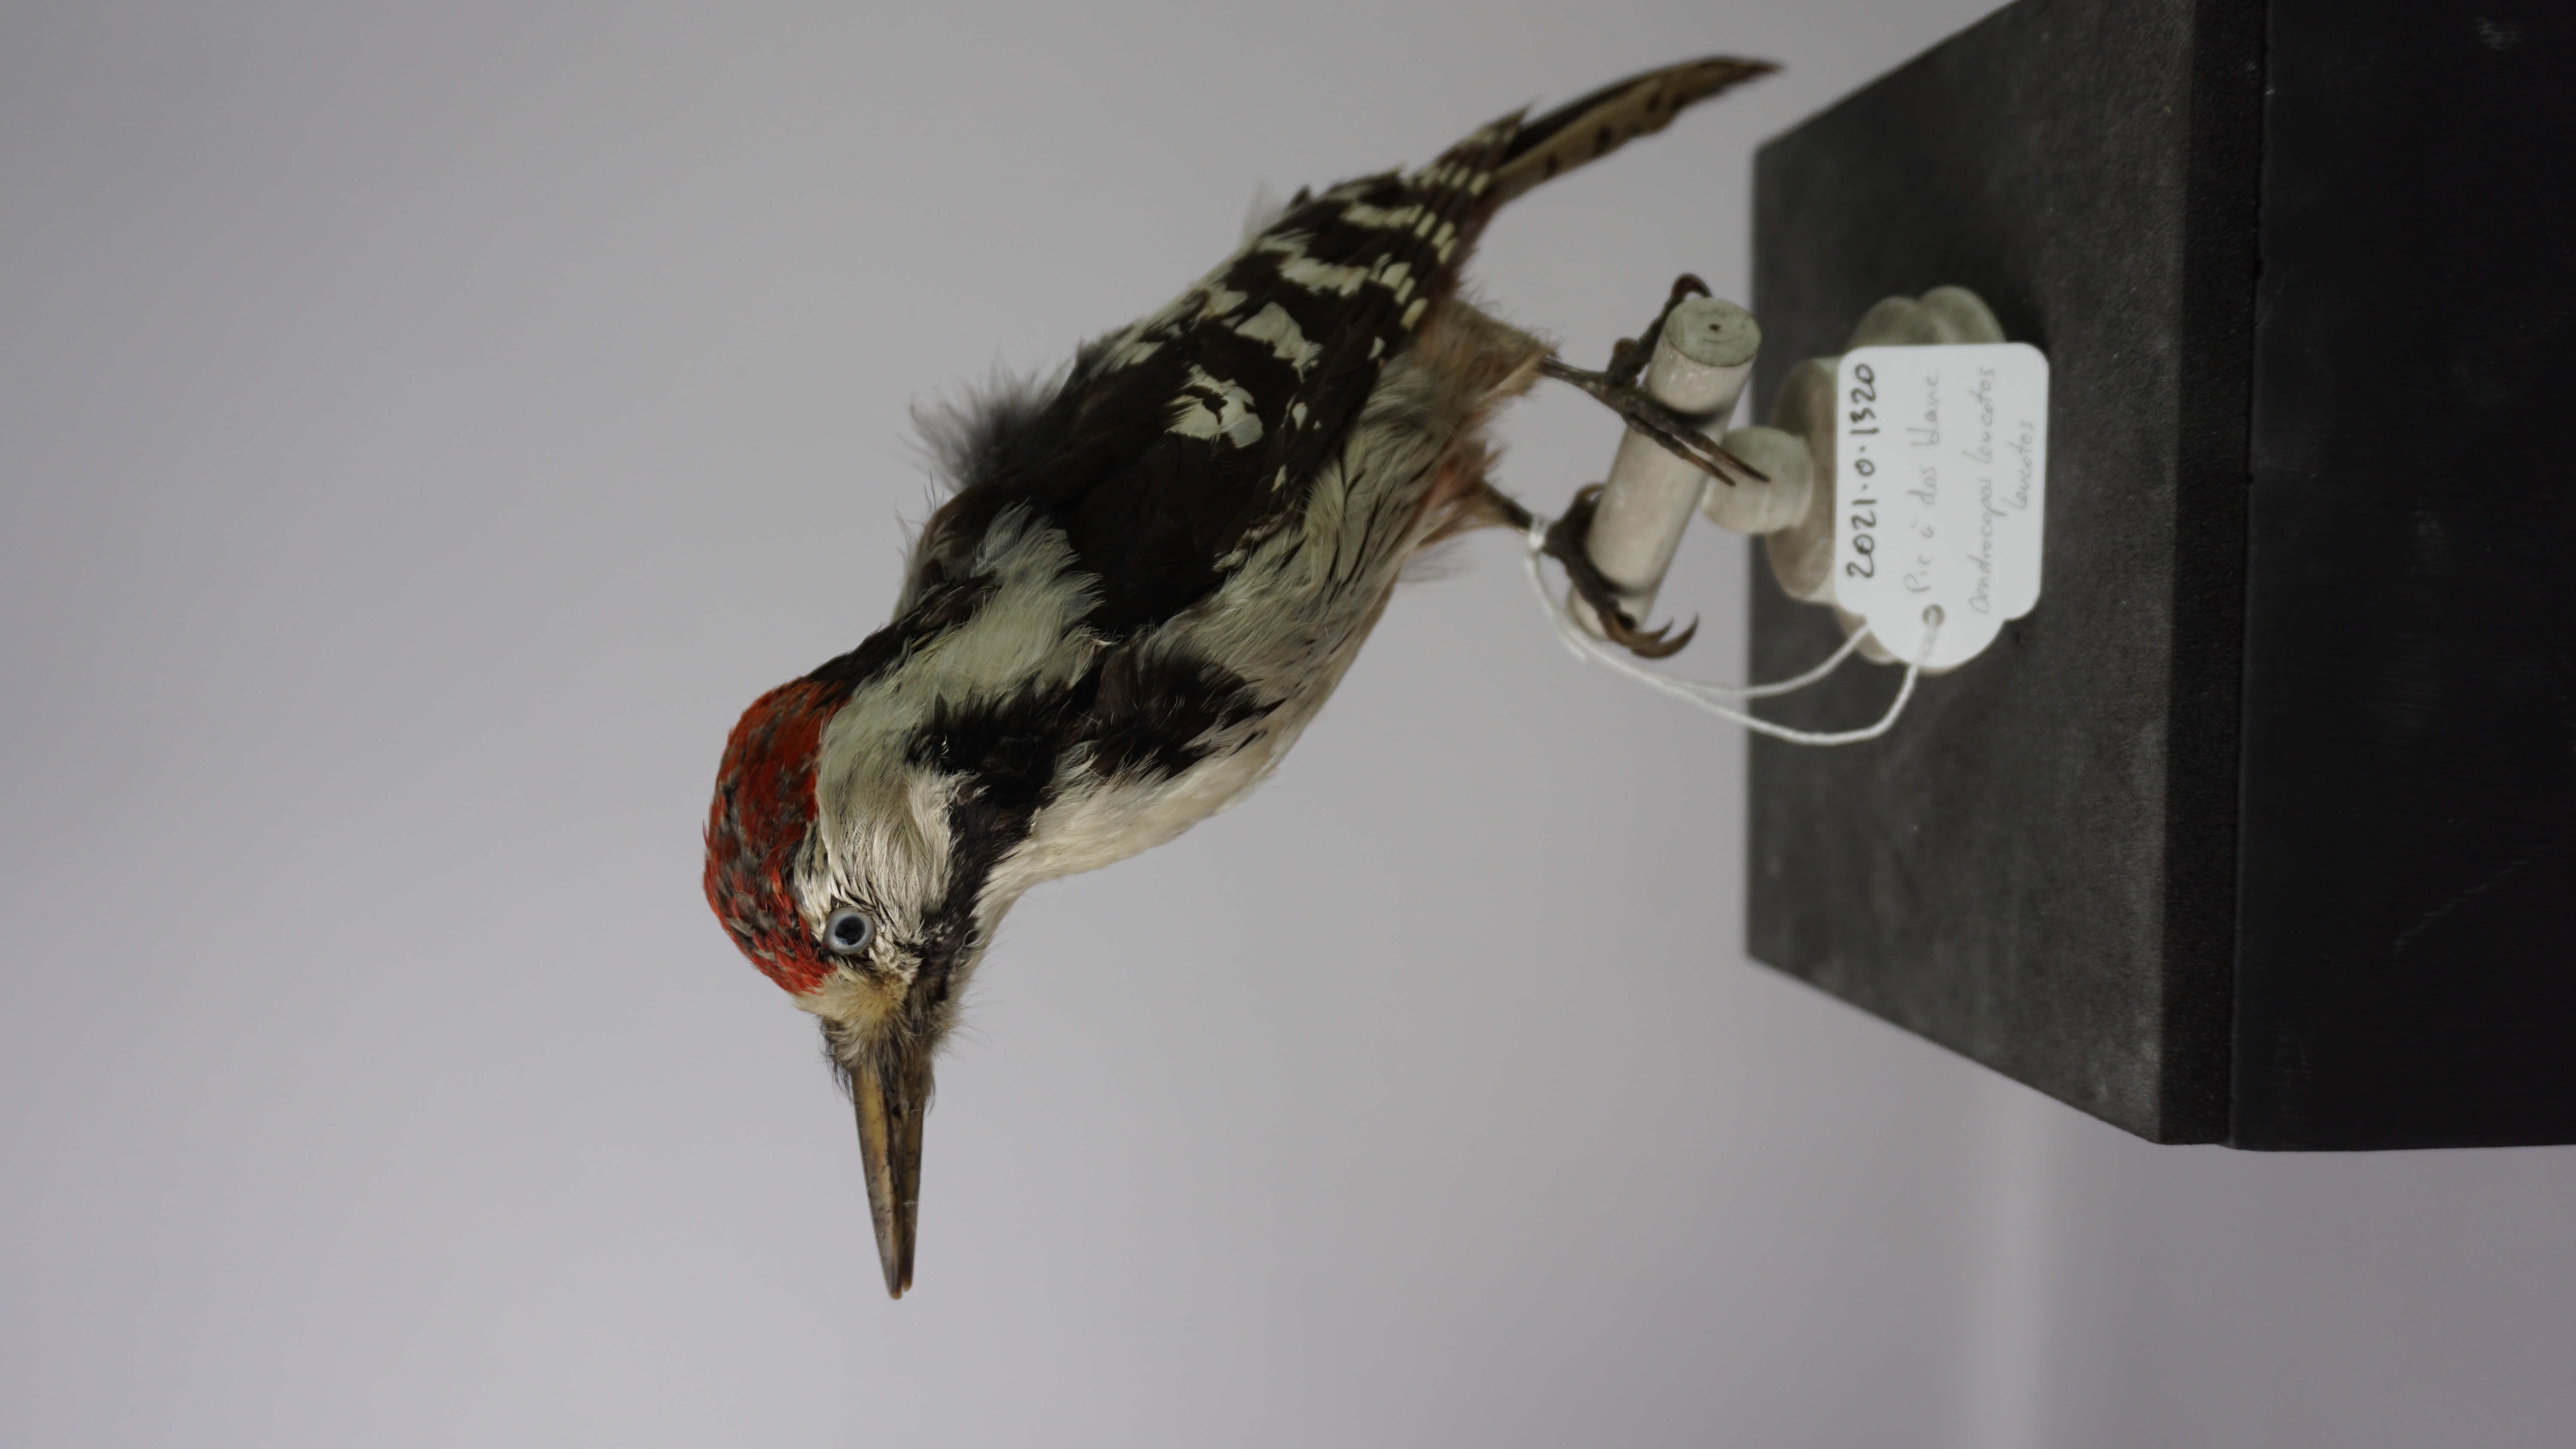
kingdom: Animalia
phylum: Chordata
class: Aves
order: Piciformes
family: Picidae
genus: Dendrocopos
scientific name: Dendrocopos leucotos
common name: White-backed woodpecker
